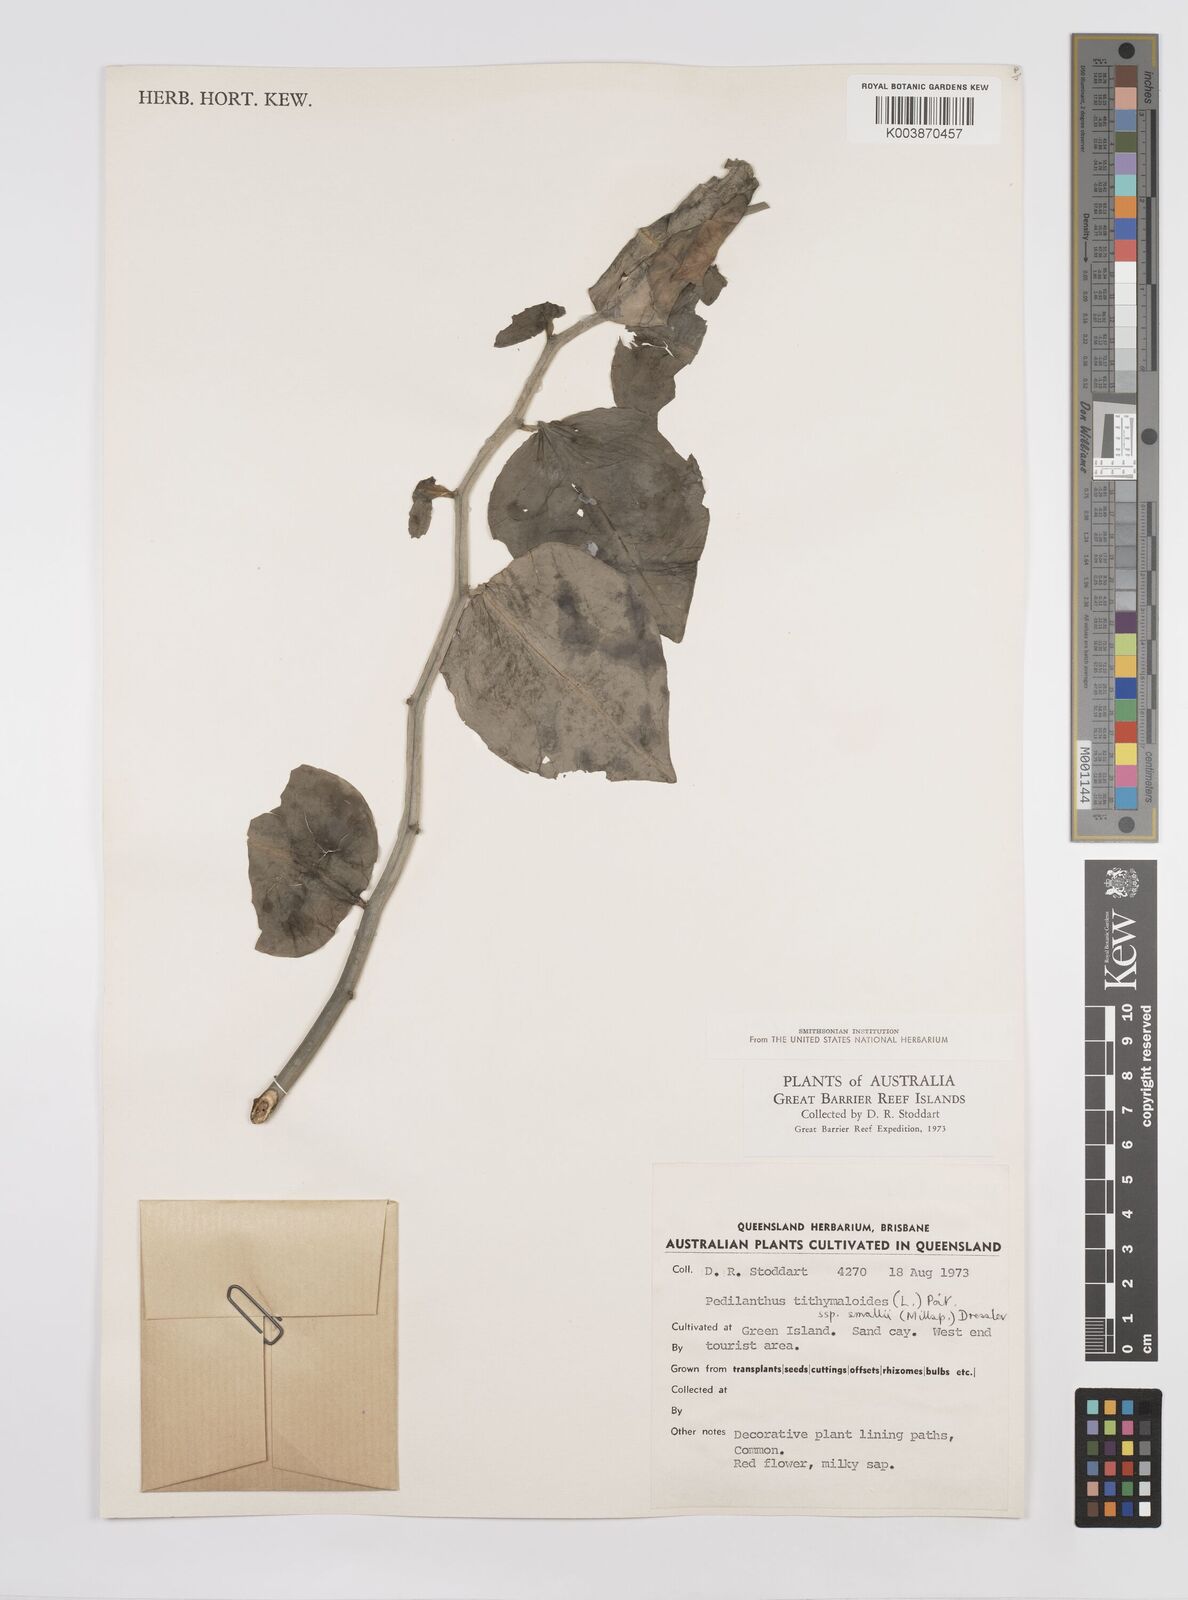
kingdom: Plantae
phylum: Tracheophyta
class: Magnoliopsida
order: Malpighiales
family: Euphorbiaceae
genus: Euphorbia
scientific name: Euphorbia tithymaloides
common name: Slipperplant
